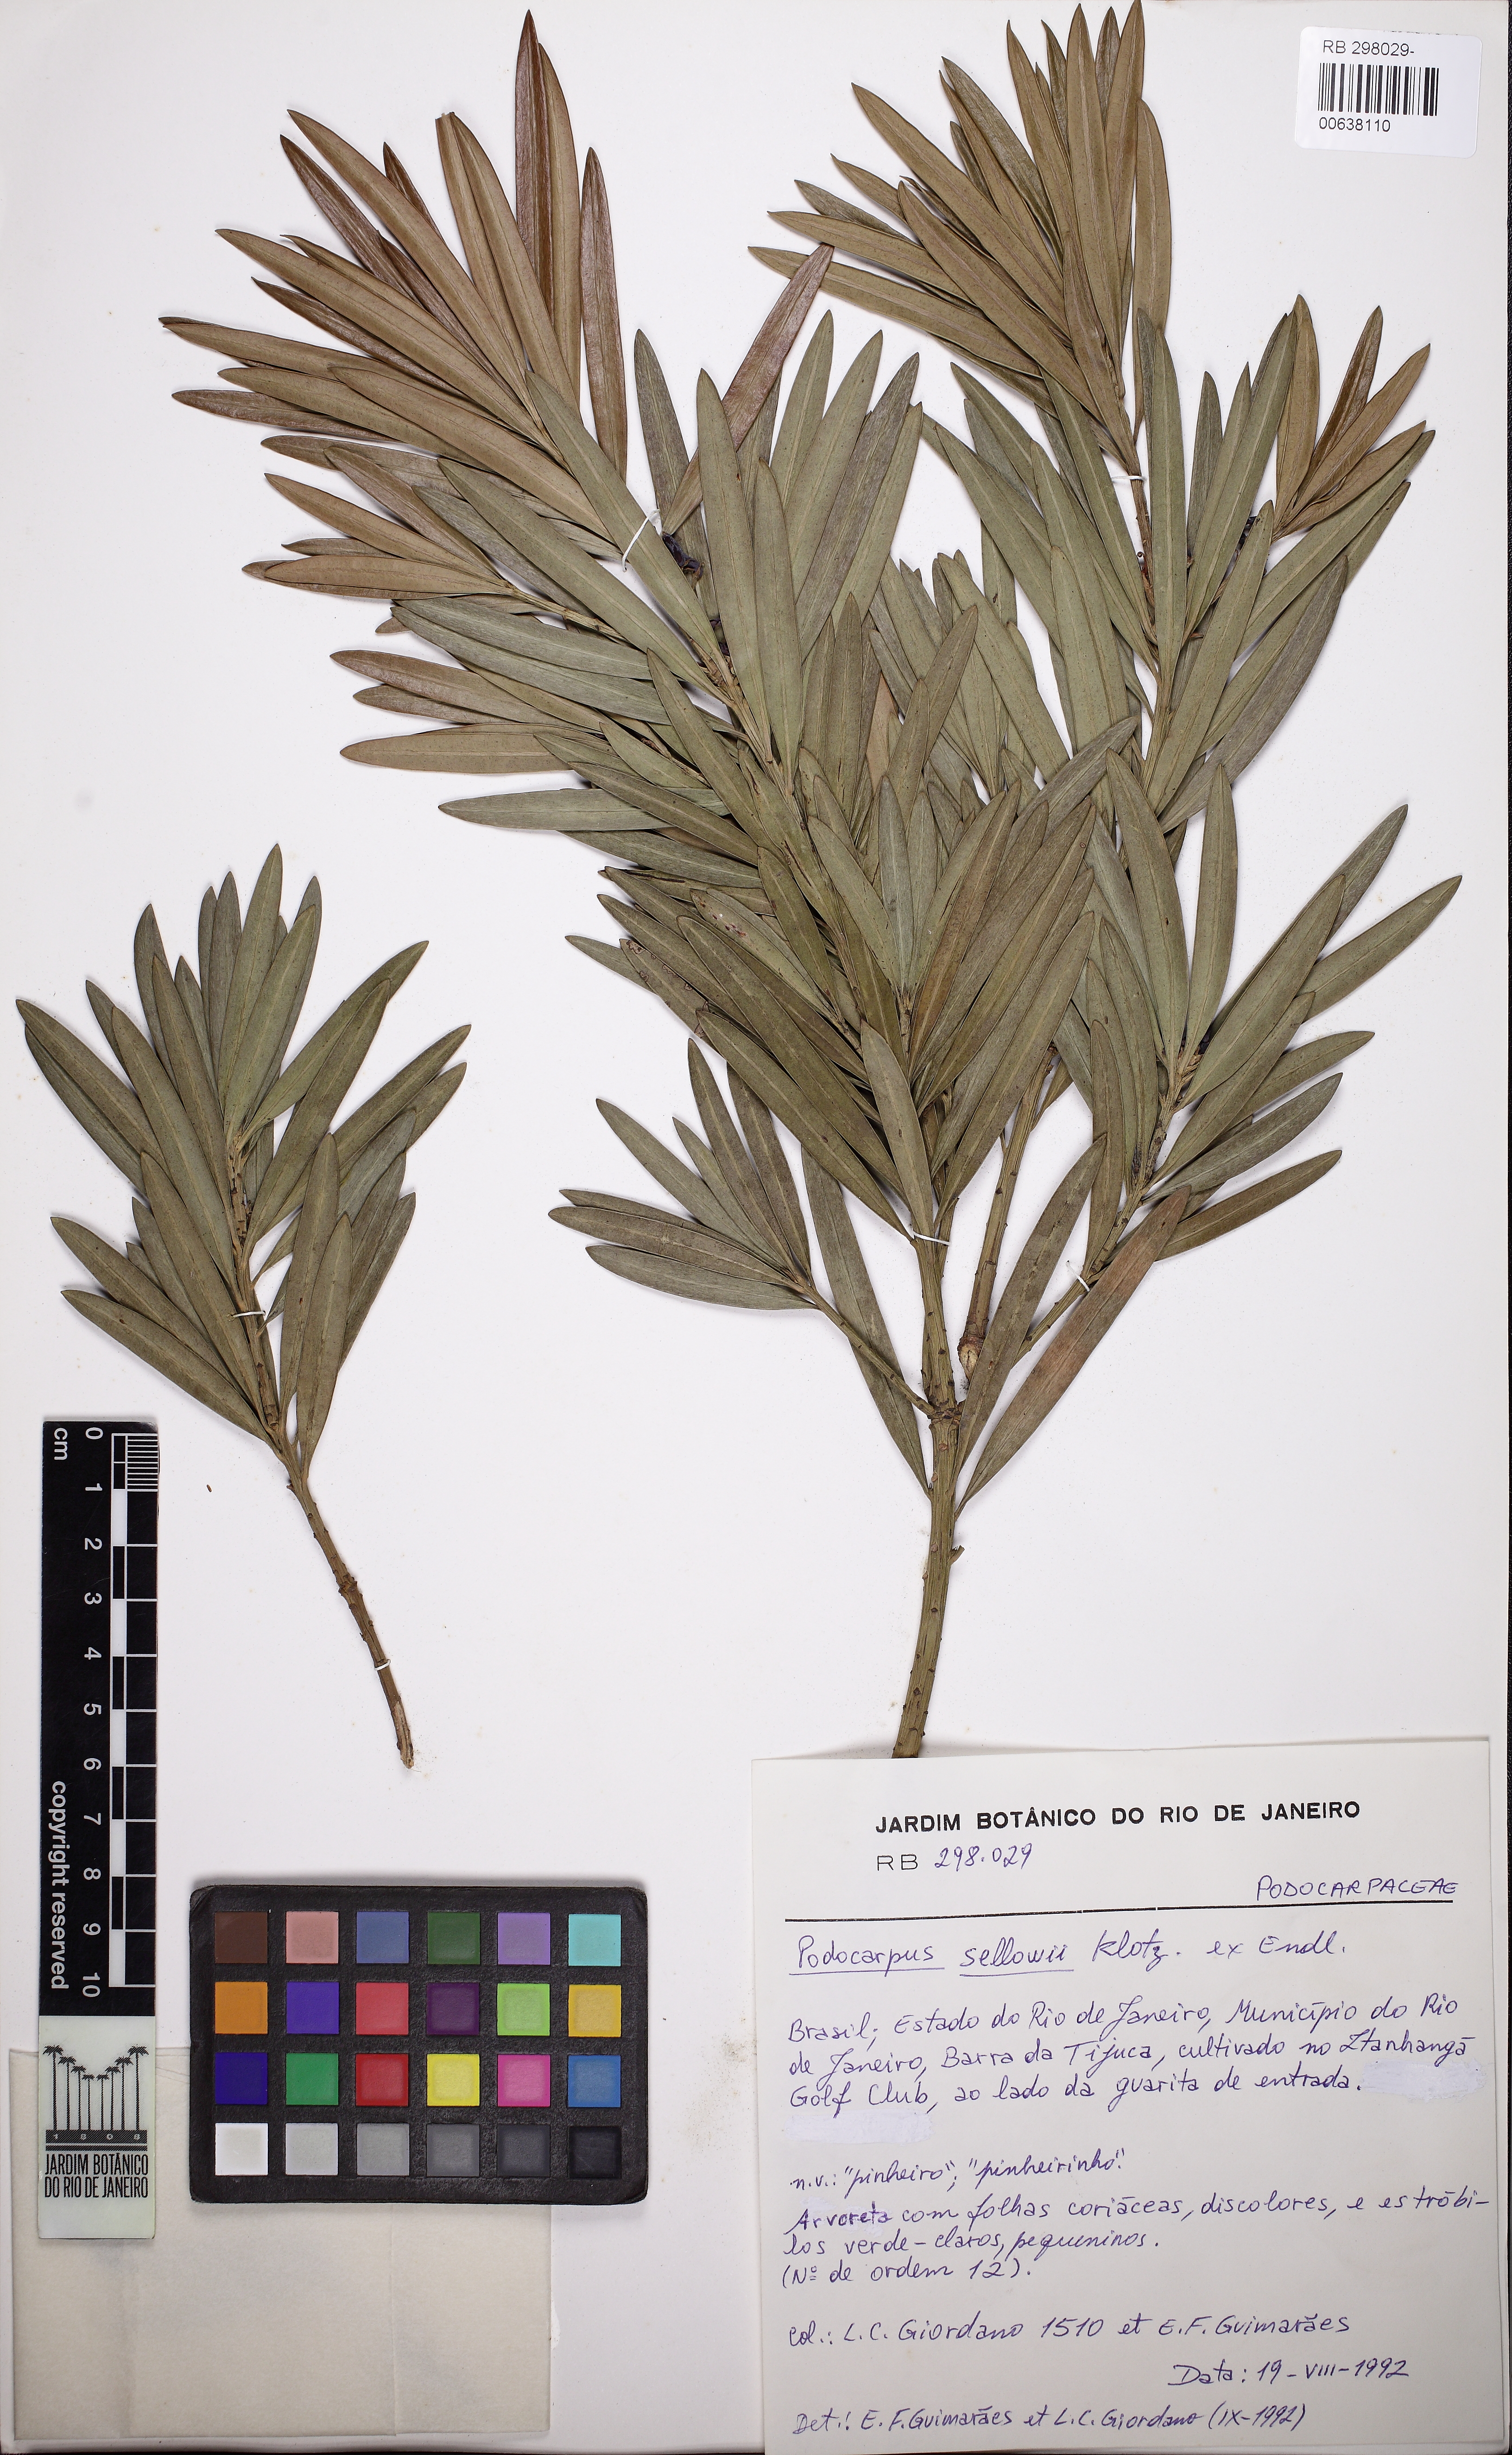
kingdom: Plantae
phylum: Tracheophyta
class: Pinopsida
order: Pinales
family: Podocarpaceae
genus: Podocarpus
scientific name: Podocarpus sellowii
